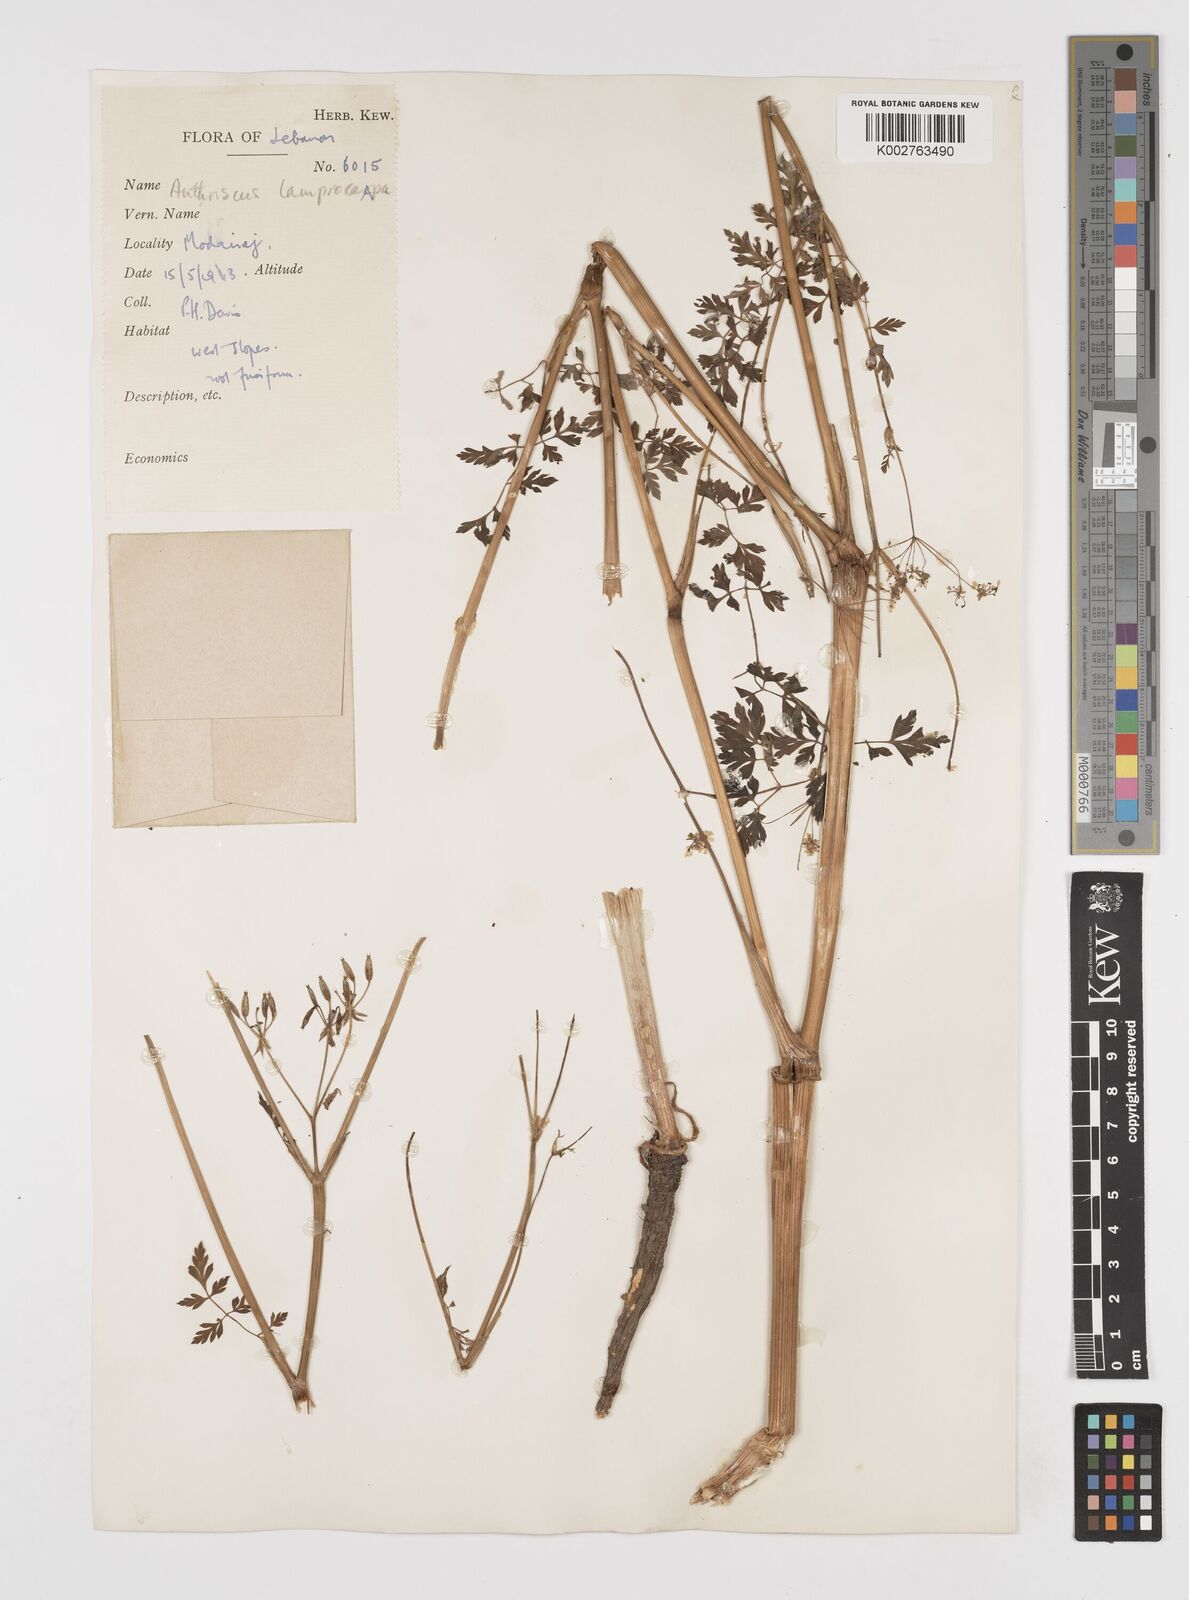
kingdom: Plantae
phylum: Tracheophyta
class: Magnoliopsida
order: Apiales
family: Apiaceae
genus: Anthriscus
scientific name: Anthriscus lamprocarpa
